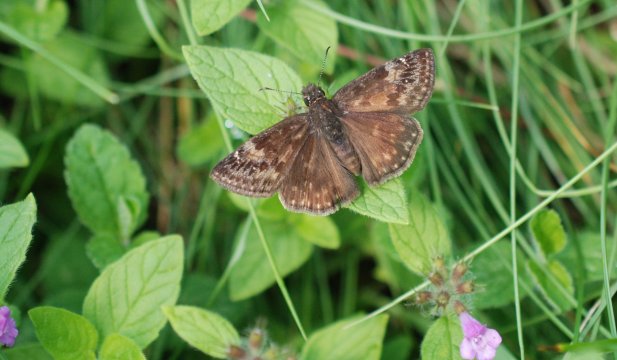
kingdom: Animalia
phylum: Arthropoda
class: Insecta
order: Lepidoptera
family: Hesperiidae
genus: Gesta
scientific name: Gesta
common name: Wild Indigo Duskywing
